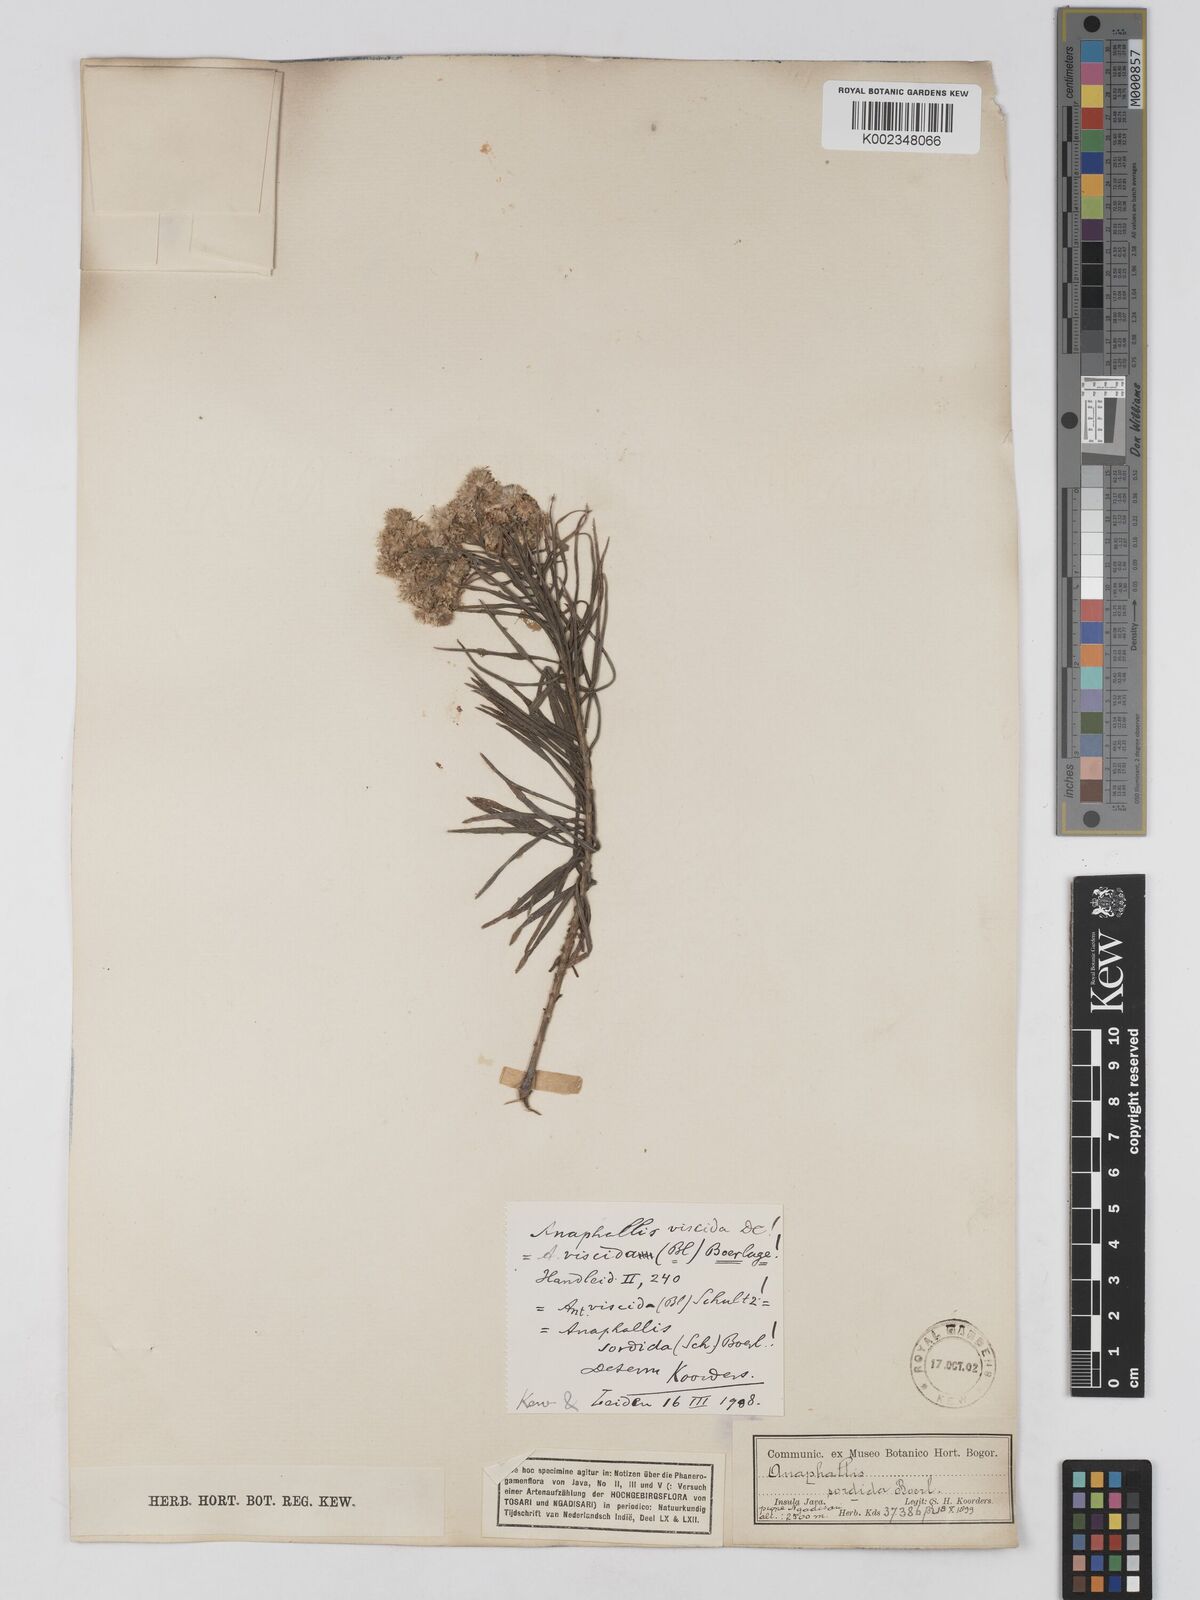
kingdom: Plantae
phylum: Tracheophyta
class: Magnoliopsida
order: Asterales
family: Asteraceae
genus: Anaphalis
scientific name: Anaphalis viscida
